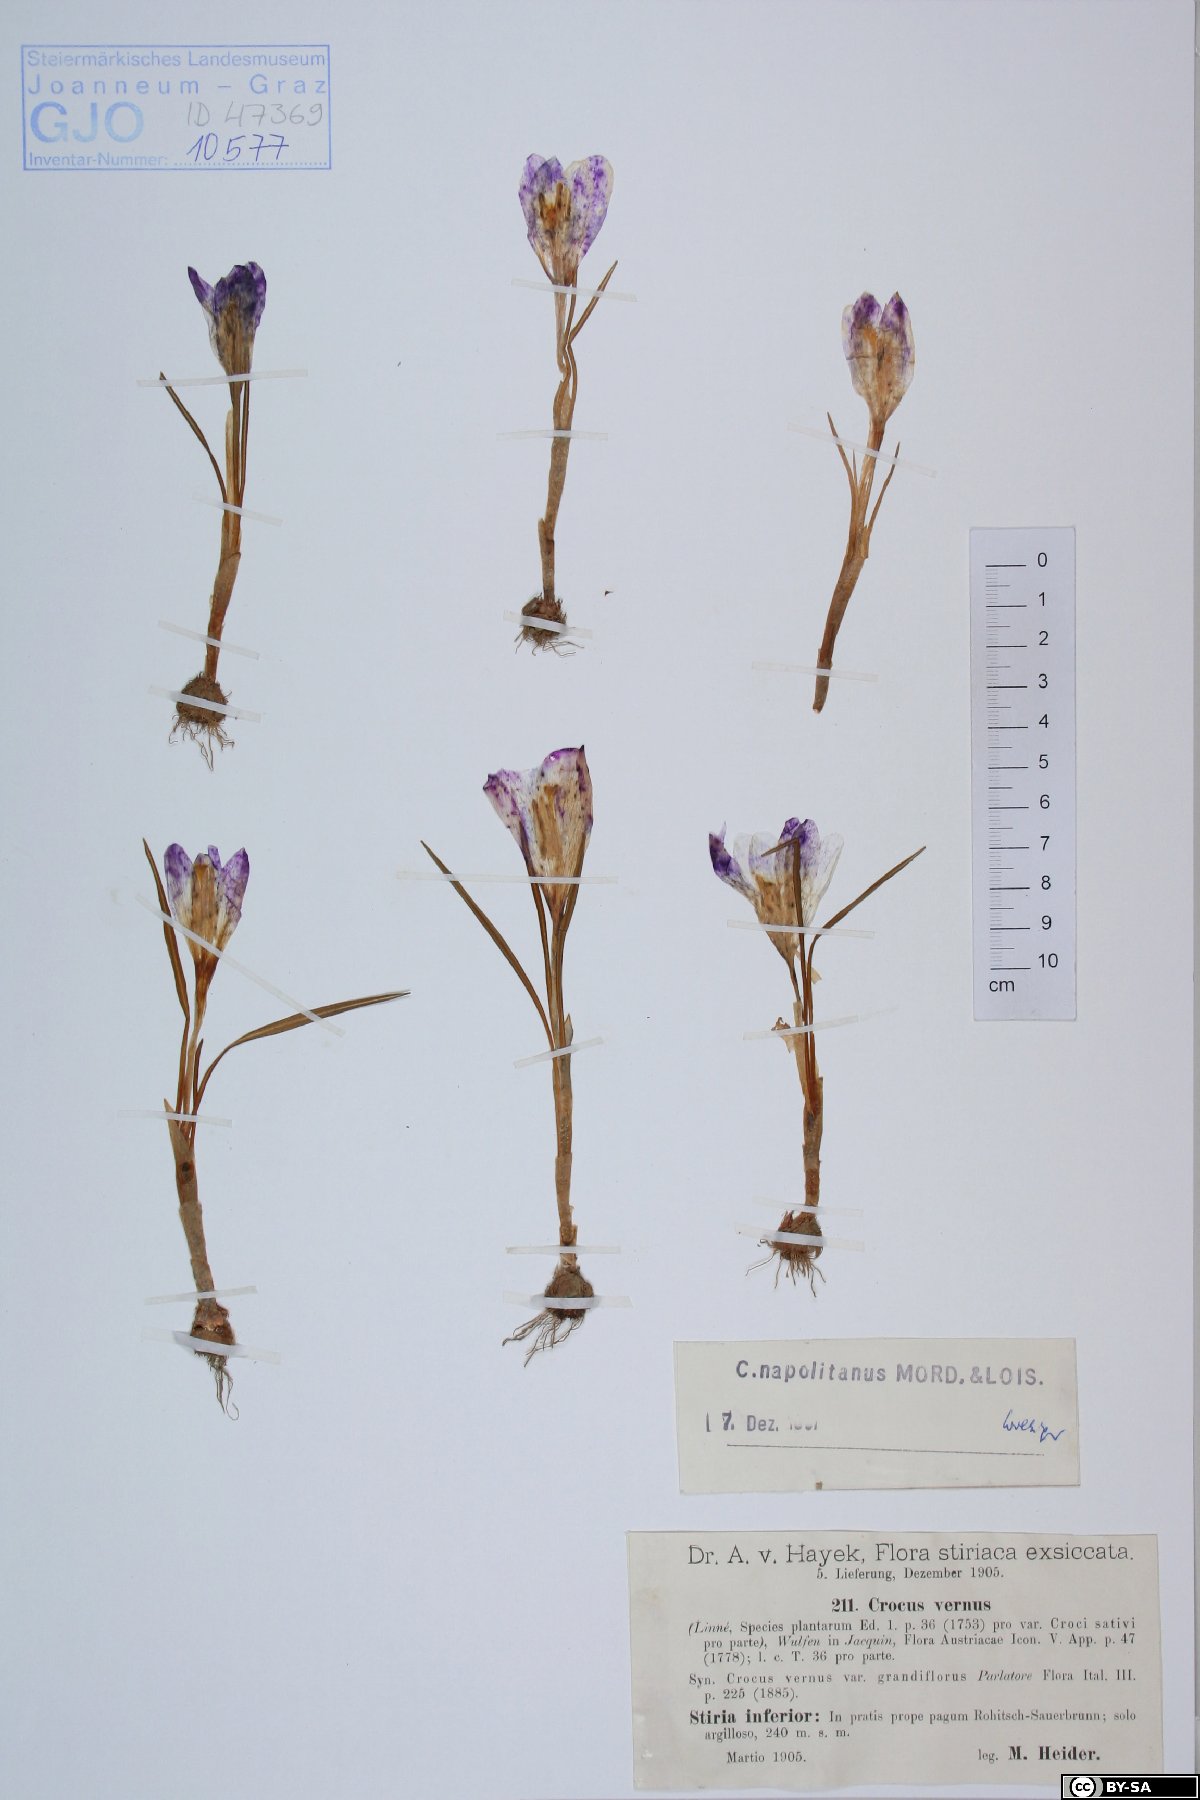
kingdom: Plantae
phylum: Tracheophyta
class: Liliopsida
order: Asparagales
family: Iridaceae
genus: Crocus
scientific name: Crocus vernus
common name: Spring crocus
